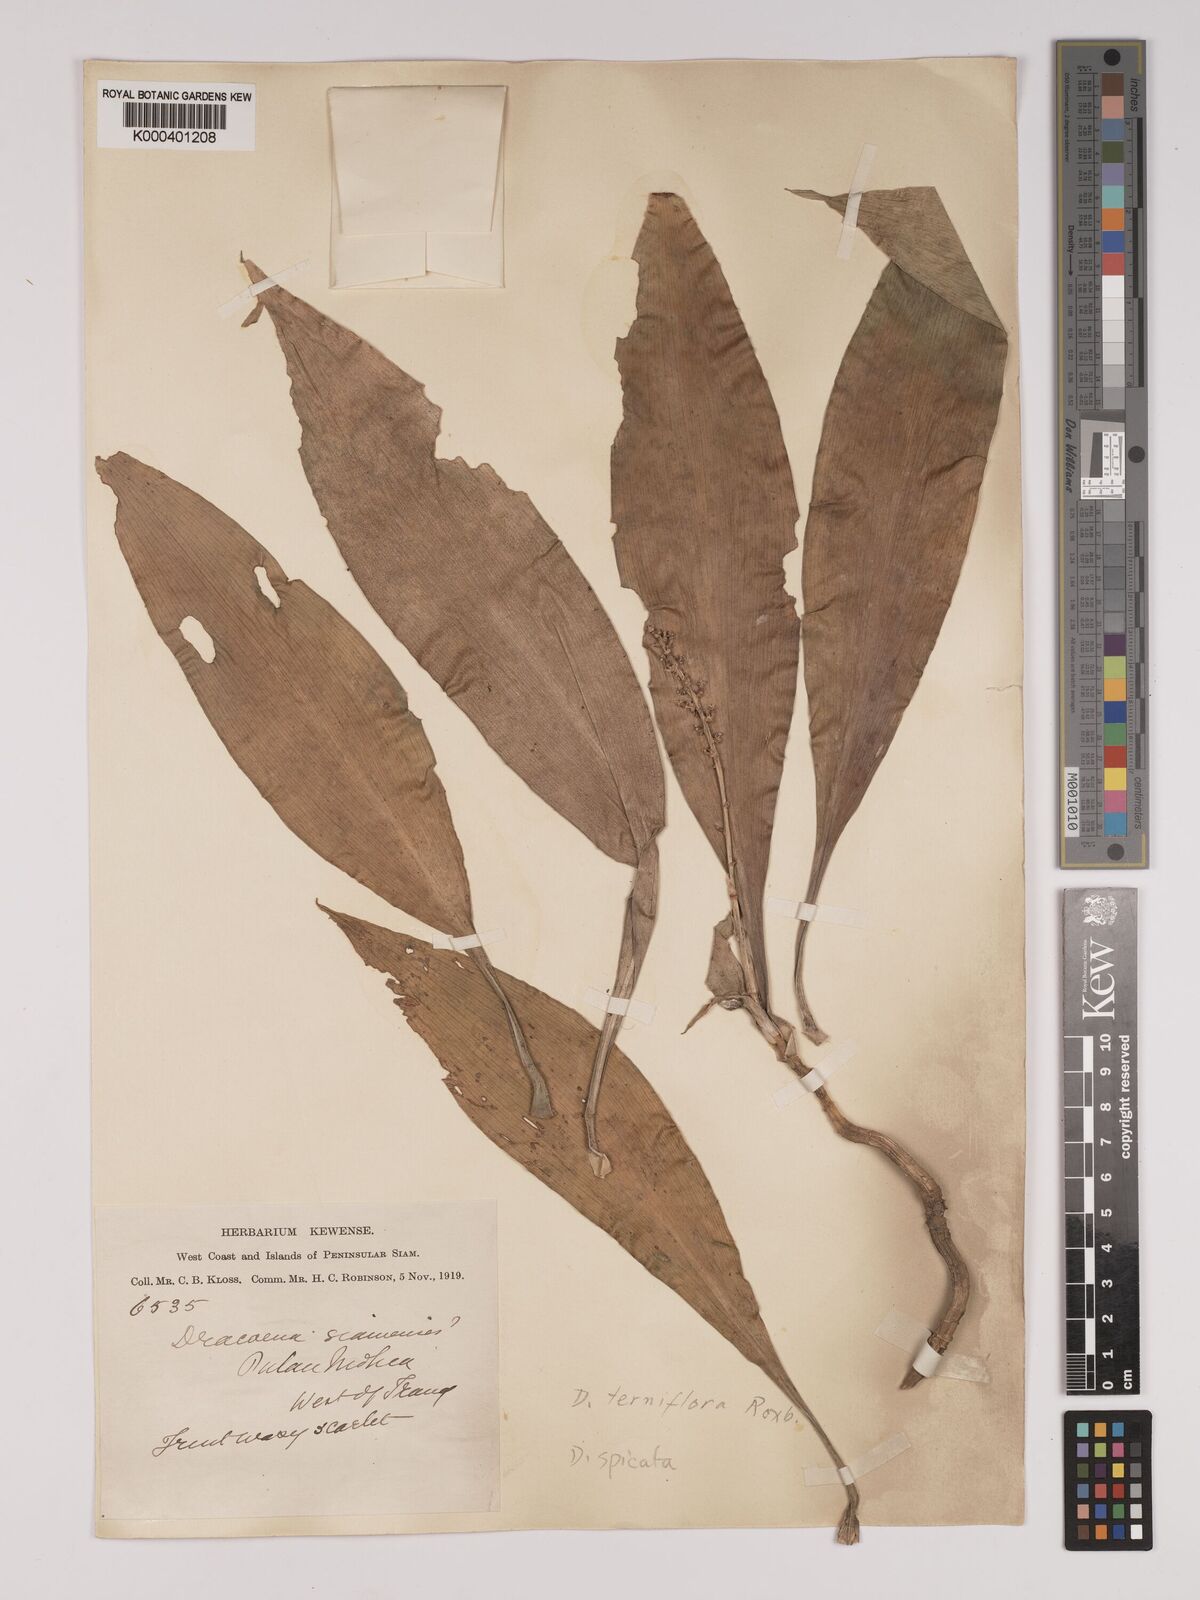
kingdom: Plantae
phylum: Tracheophyta
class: Liliopsida
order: Asparagales
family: Asparagaceae
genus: Dracaena
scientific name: Dracaena terniflora
